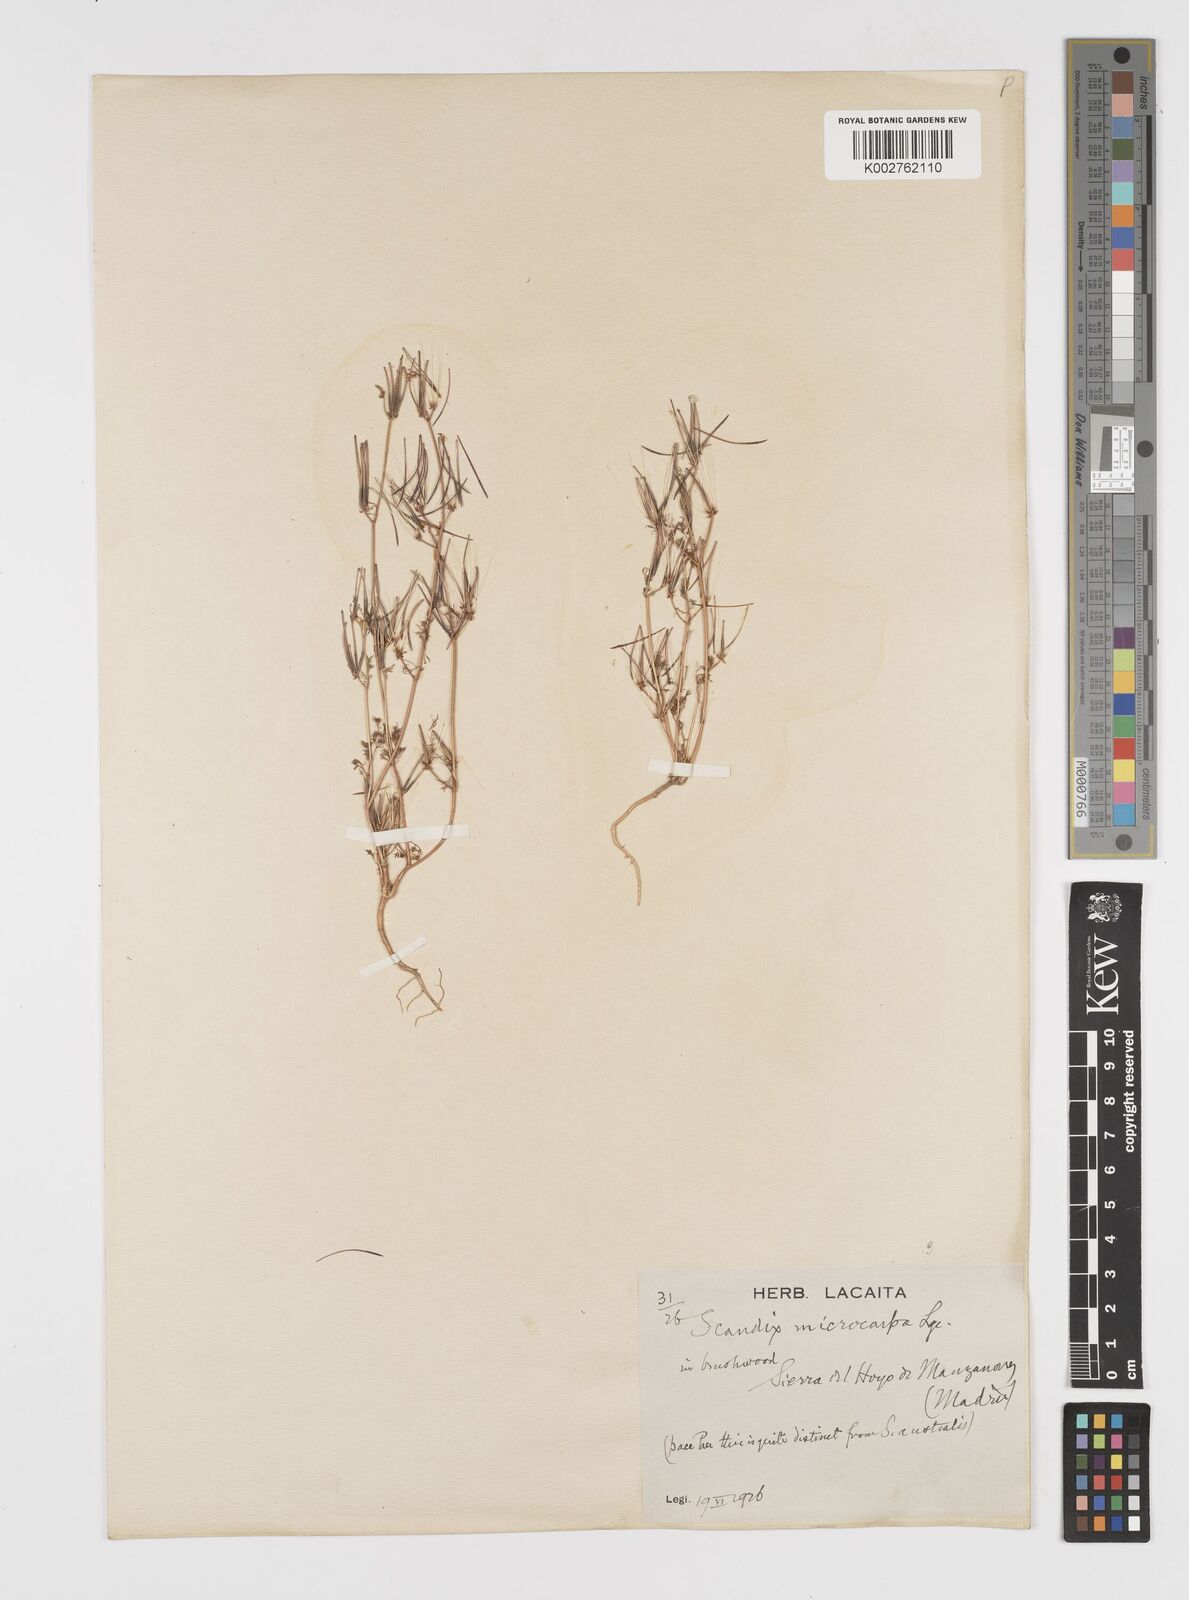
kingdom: Plantae
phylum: Tracheophyta
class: Magnoliopsida
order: Apiales
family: Apiaceae
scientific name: Apiaceae
